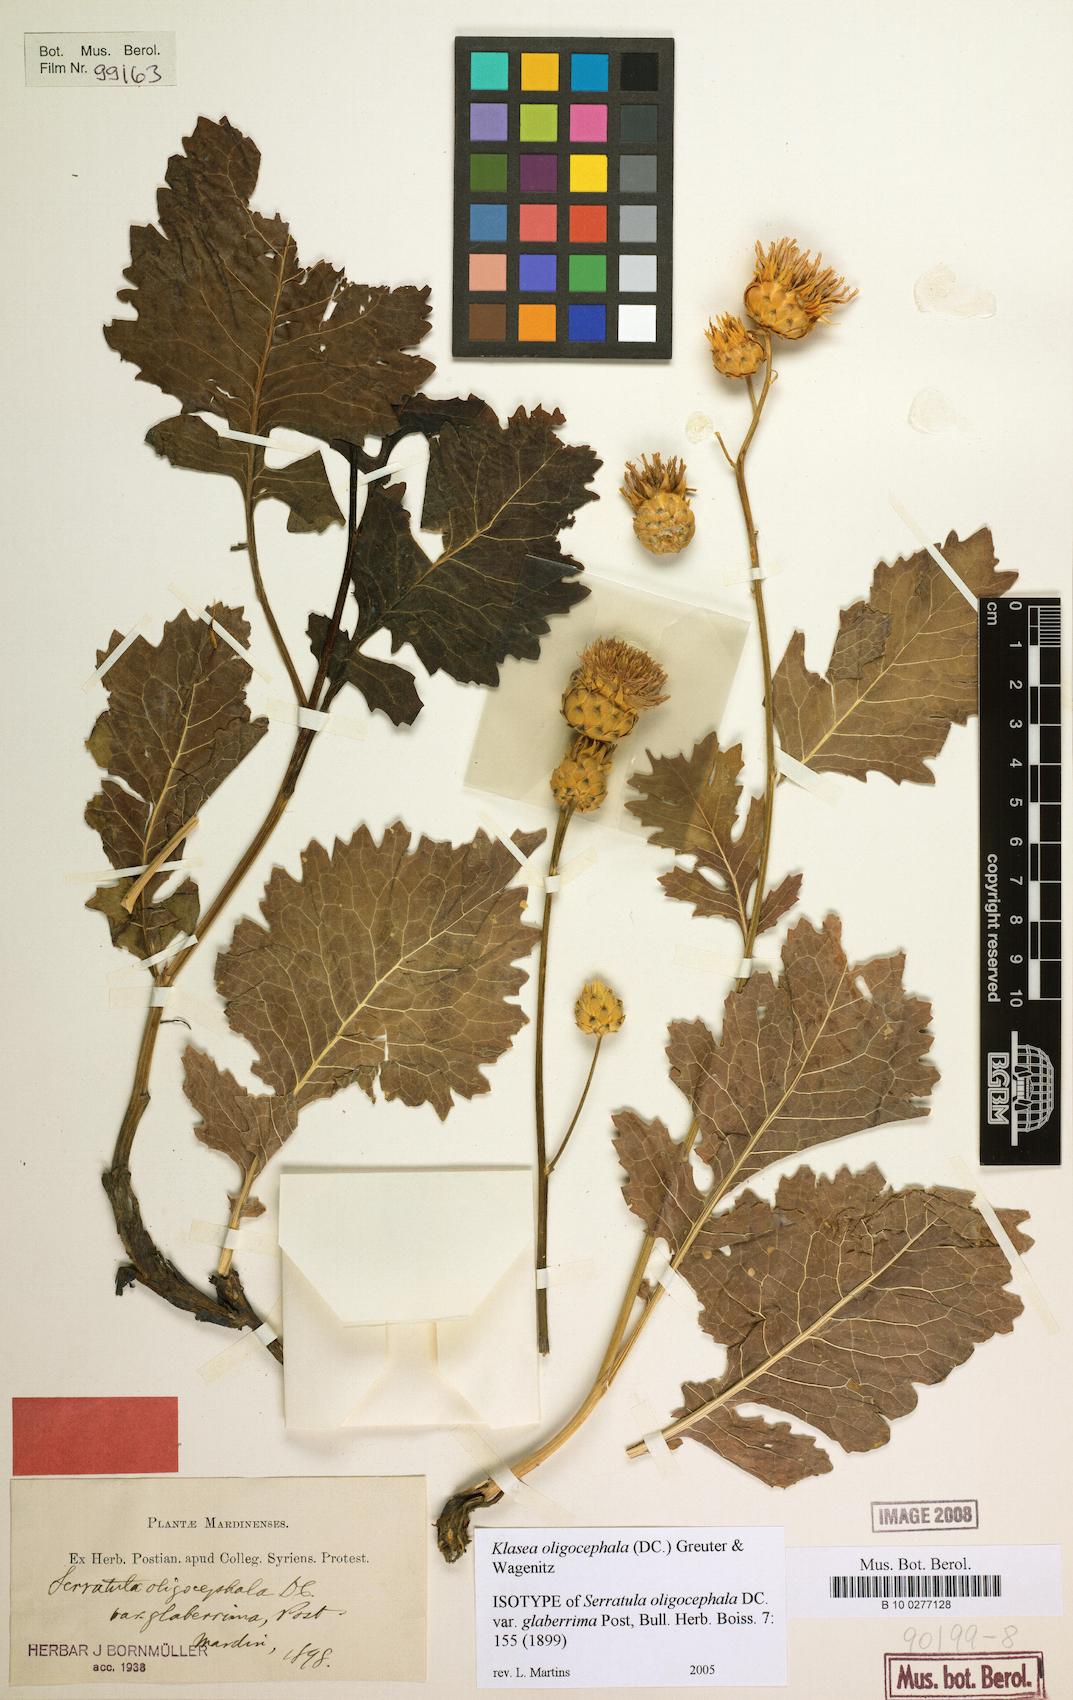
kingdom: Plantae
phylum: Tracheophyta
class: Magnoliopsida
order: Asterales
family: Asteraceae
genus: Klasea
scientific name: Klasea oligocephala
